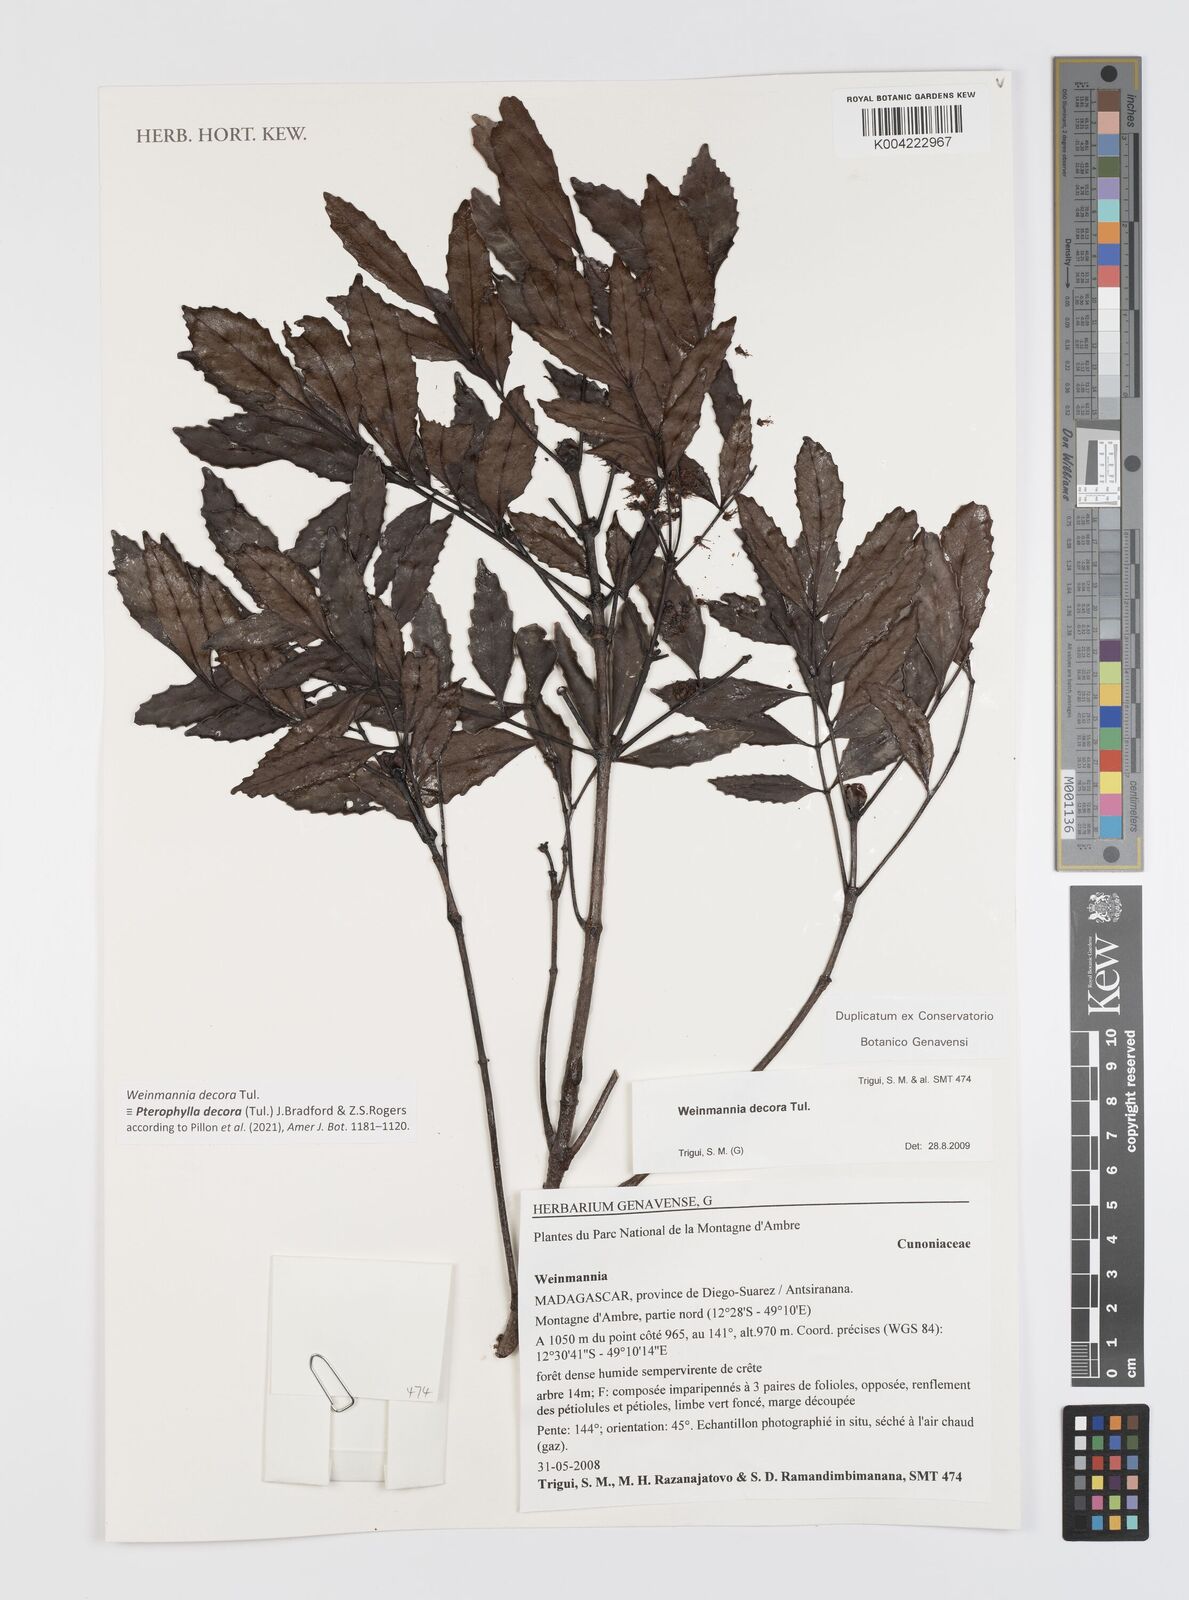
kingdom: Plantae
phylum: Tracheophyta
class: Magnoliopsida
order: Oxalidales
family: Cunoniaceae
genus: Pterophylla
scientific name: Pterophylla decora
